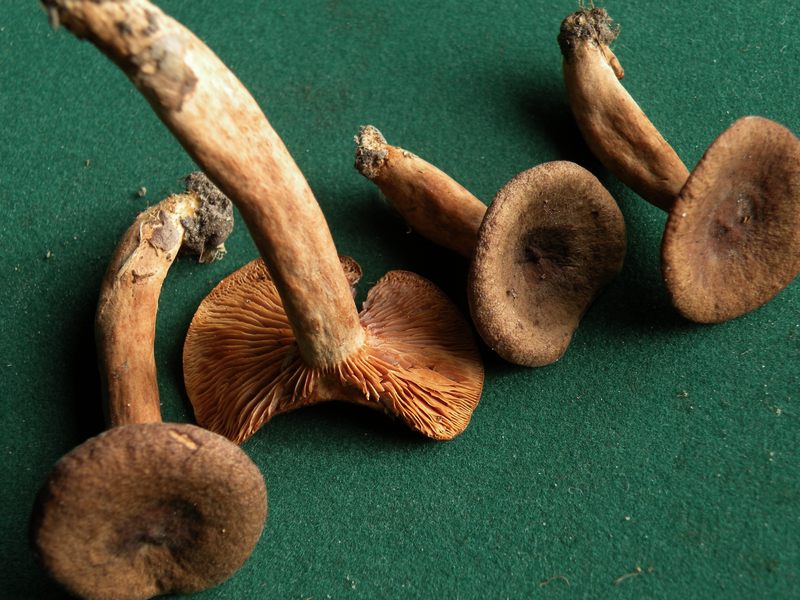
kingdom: Fungi
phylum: Basidiomycota
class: Agaricomycetes
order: Russulales
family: Russulaceae
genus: Lactarius
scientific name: Lactarius serifluus
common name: tæge-mælkehat
